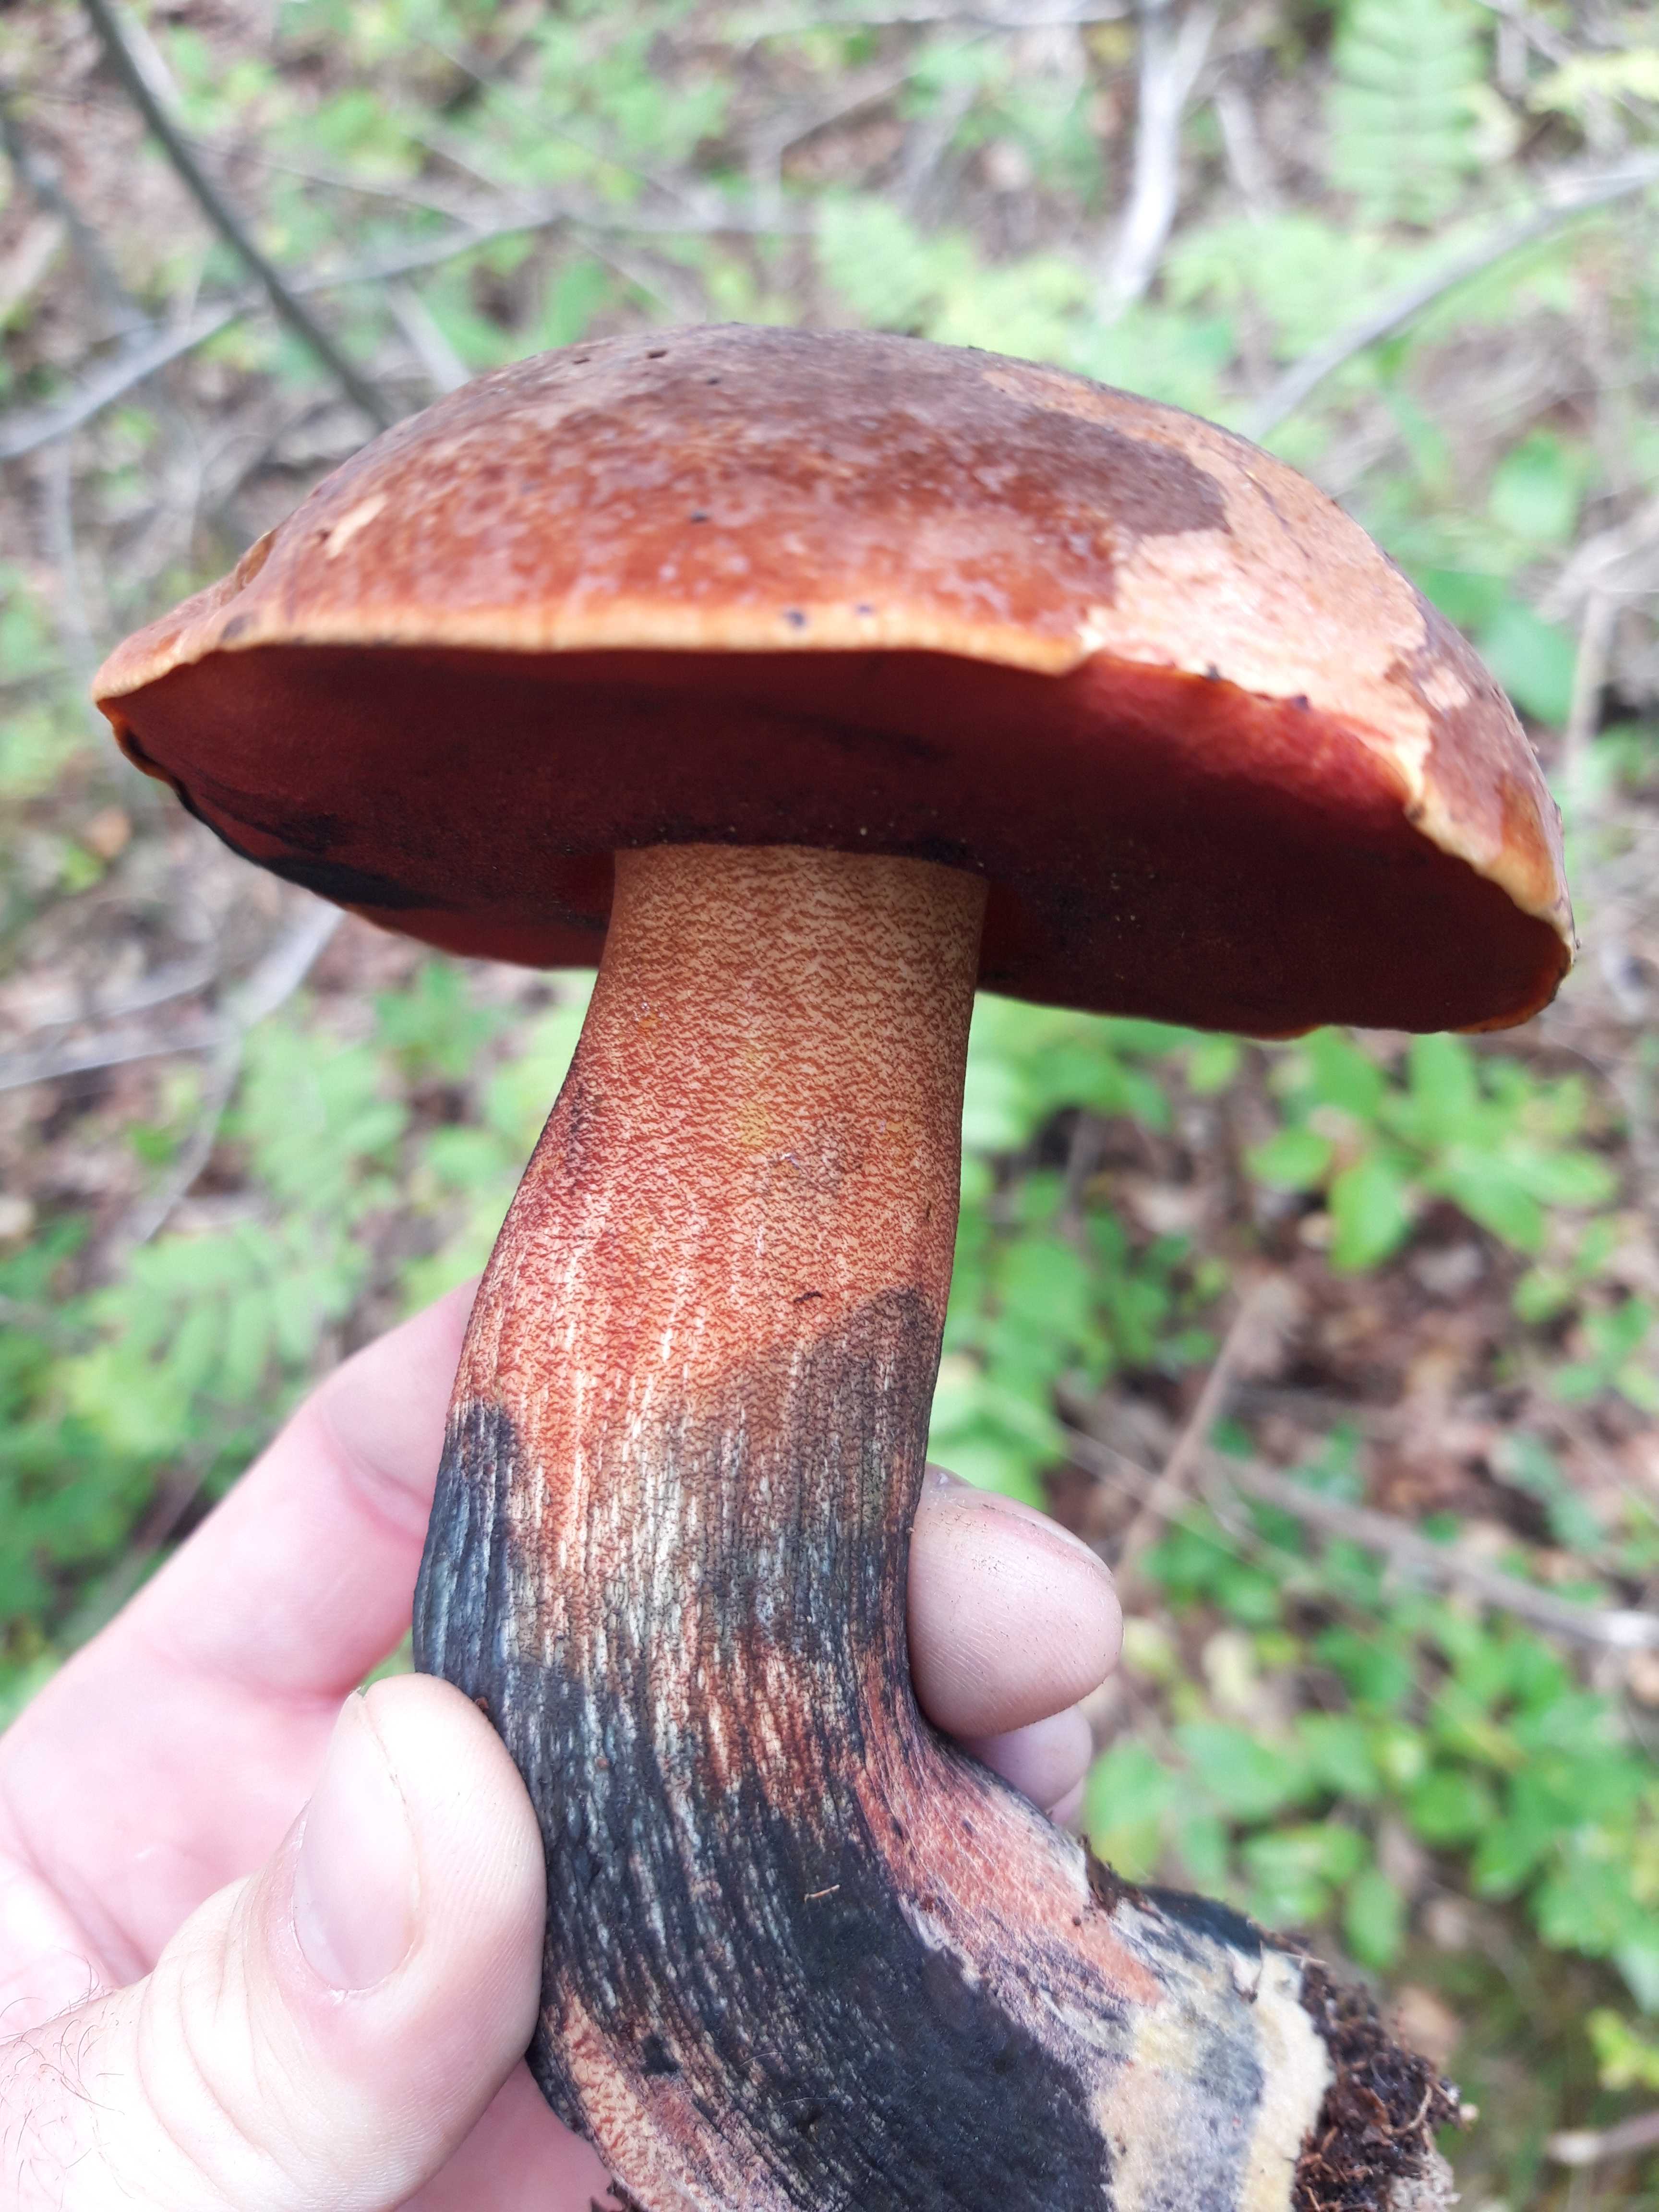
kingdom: Fungi
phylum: Basidiomycota
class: Agaricomycetes
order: Boletales
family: Boletaceae
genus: Neoboletus
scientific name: Neoboletus erythropus
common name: punktstokket indigorørhat
